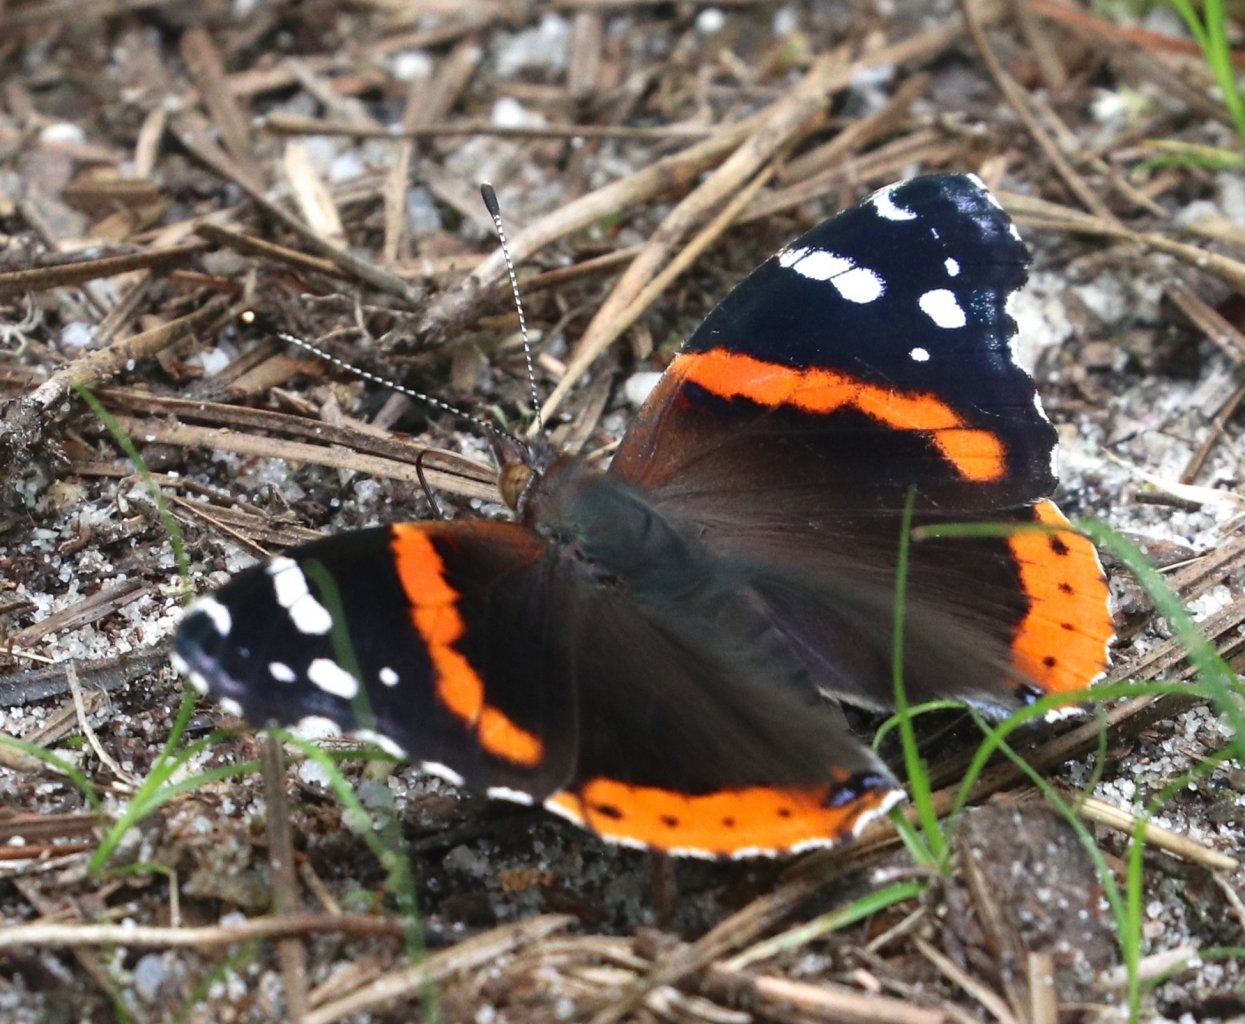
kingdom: Animalia
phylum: Arthropoda
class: Insecta
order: Lepidoptera
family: Nymphalidae
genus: Vanessa
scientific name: Vanessa atalanta
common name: Red Admiral
